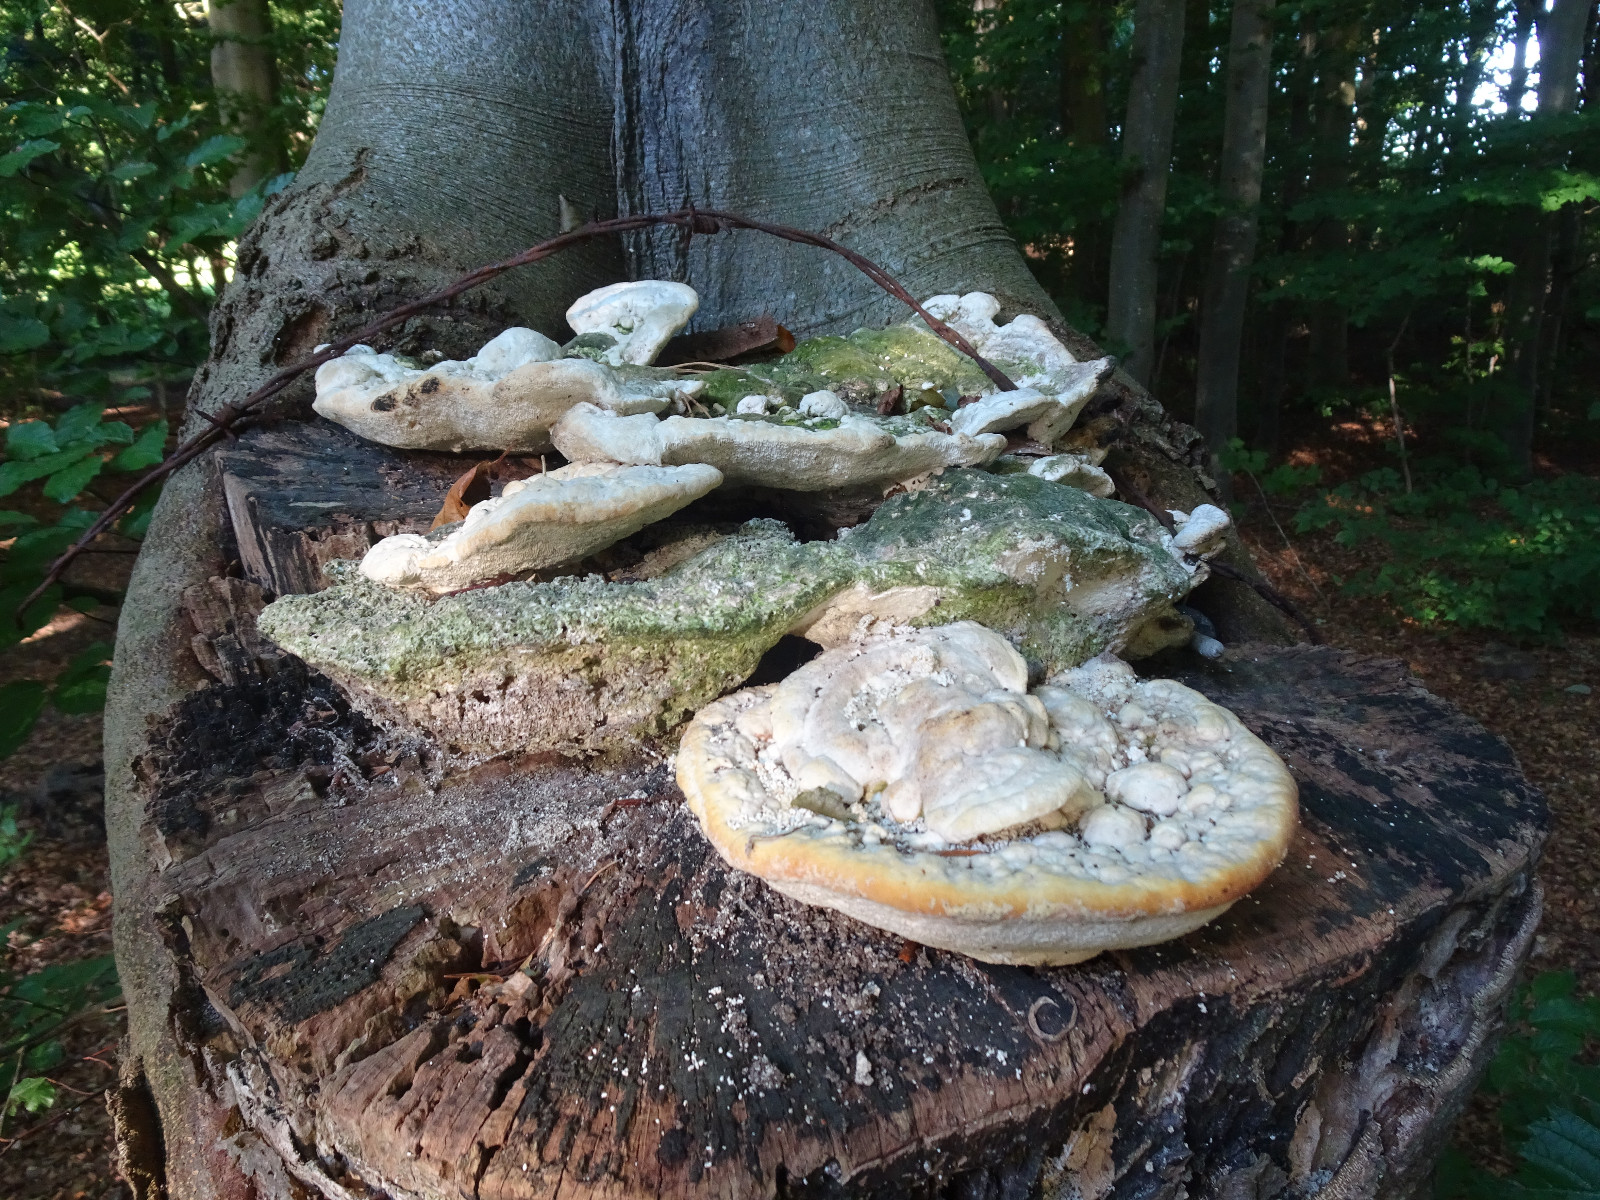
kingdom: Fungi
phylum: Basidiomycota
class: Agaricomycetes
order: Polyporales
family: Polyporaceae
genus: Trametes
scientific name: Trametes gibbosa
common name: puklet læderporesvamp
